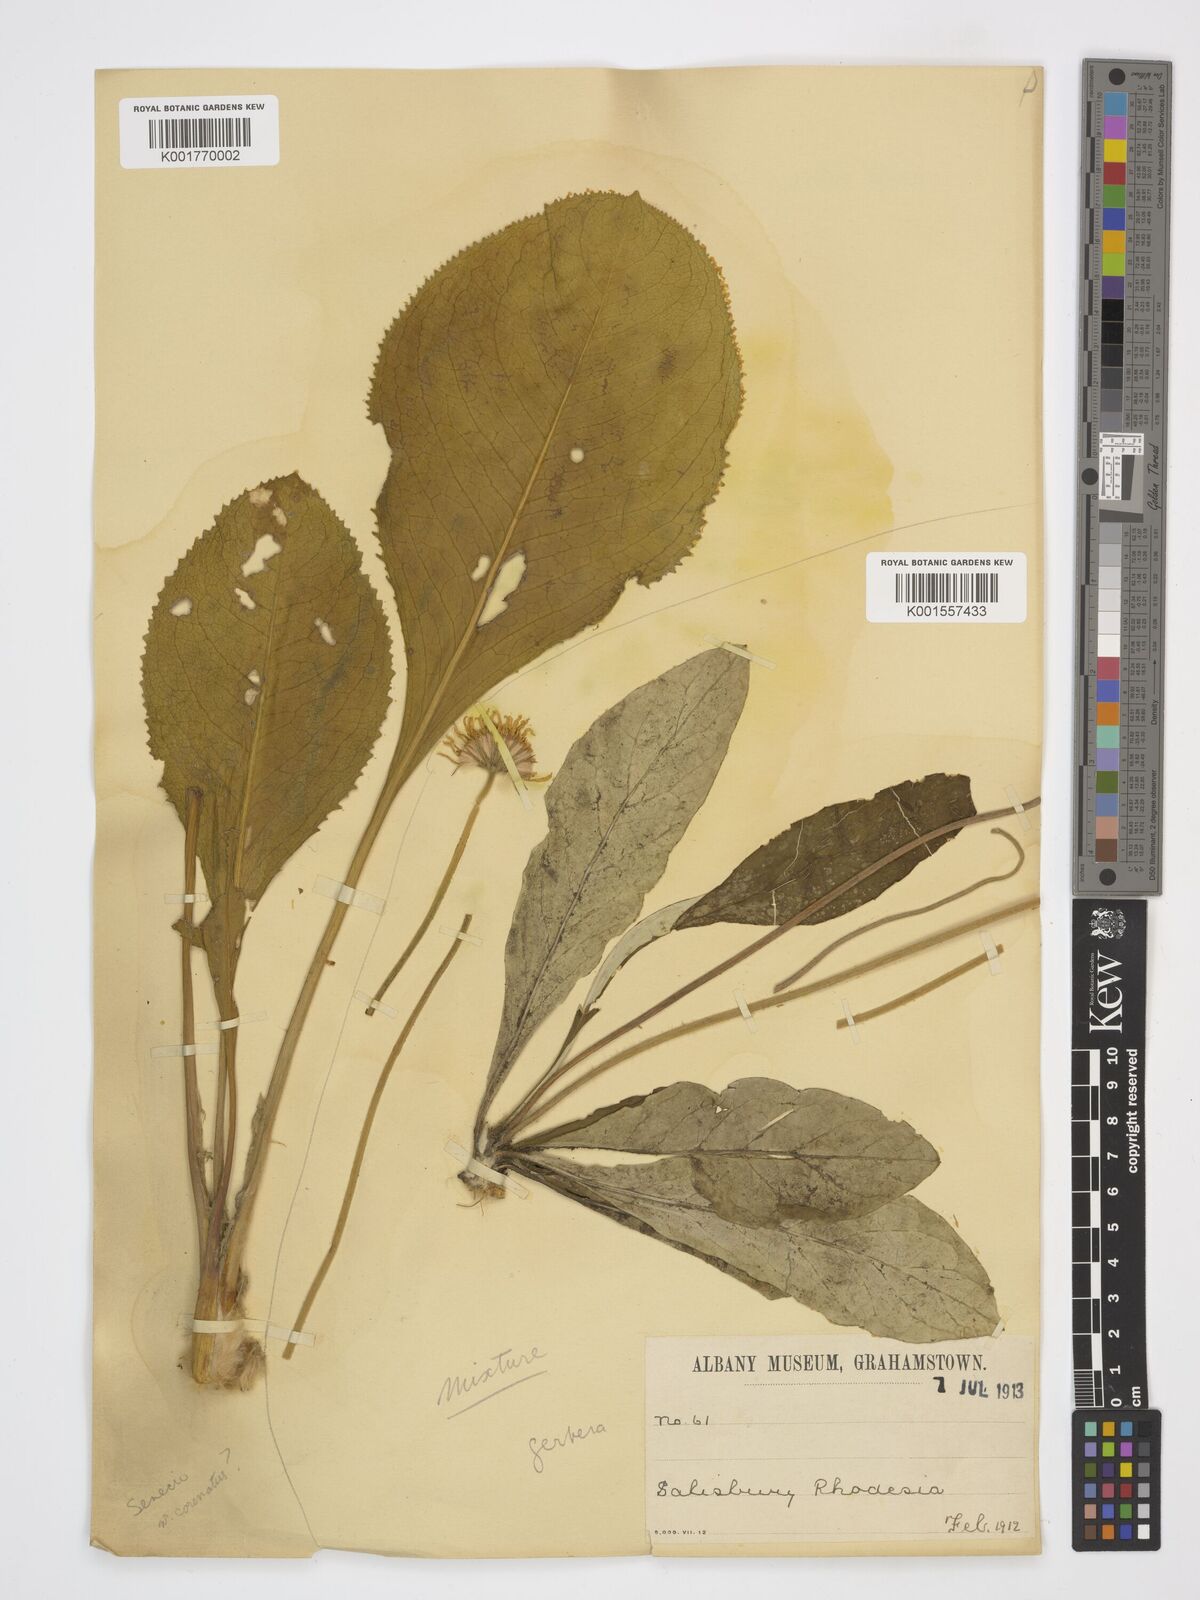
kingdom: Plantae
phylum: Tracheophyta
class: Magnoliopsida
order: Asterales
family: Asteraceae
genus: Gerbera
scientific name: Gerbera ambigua
